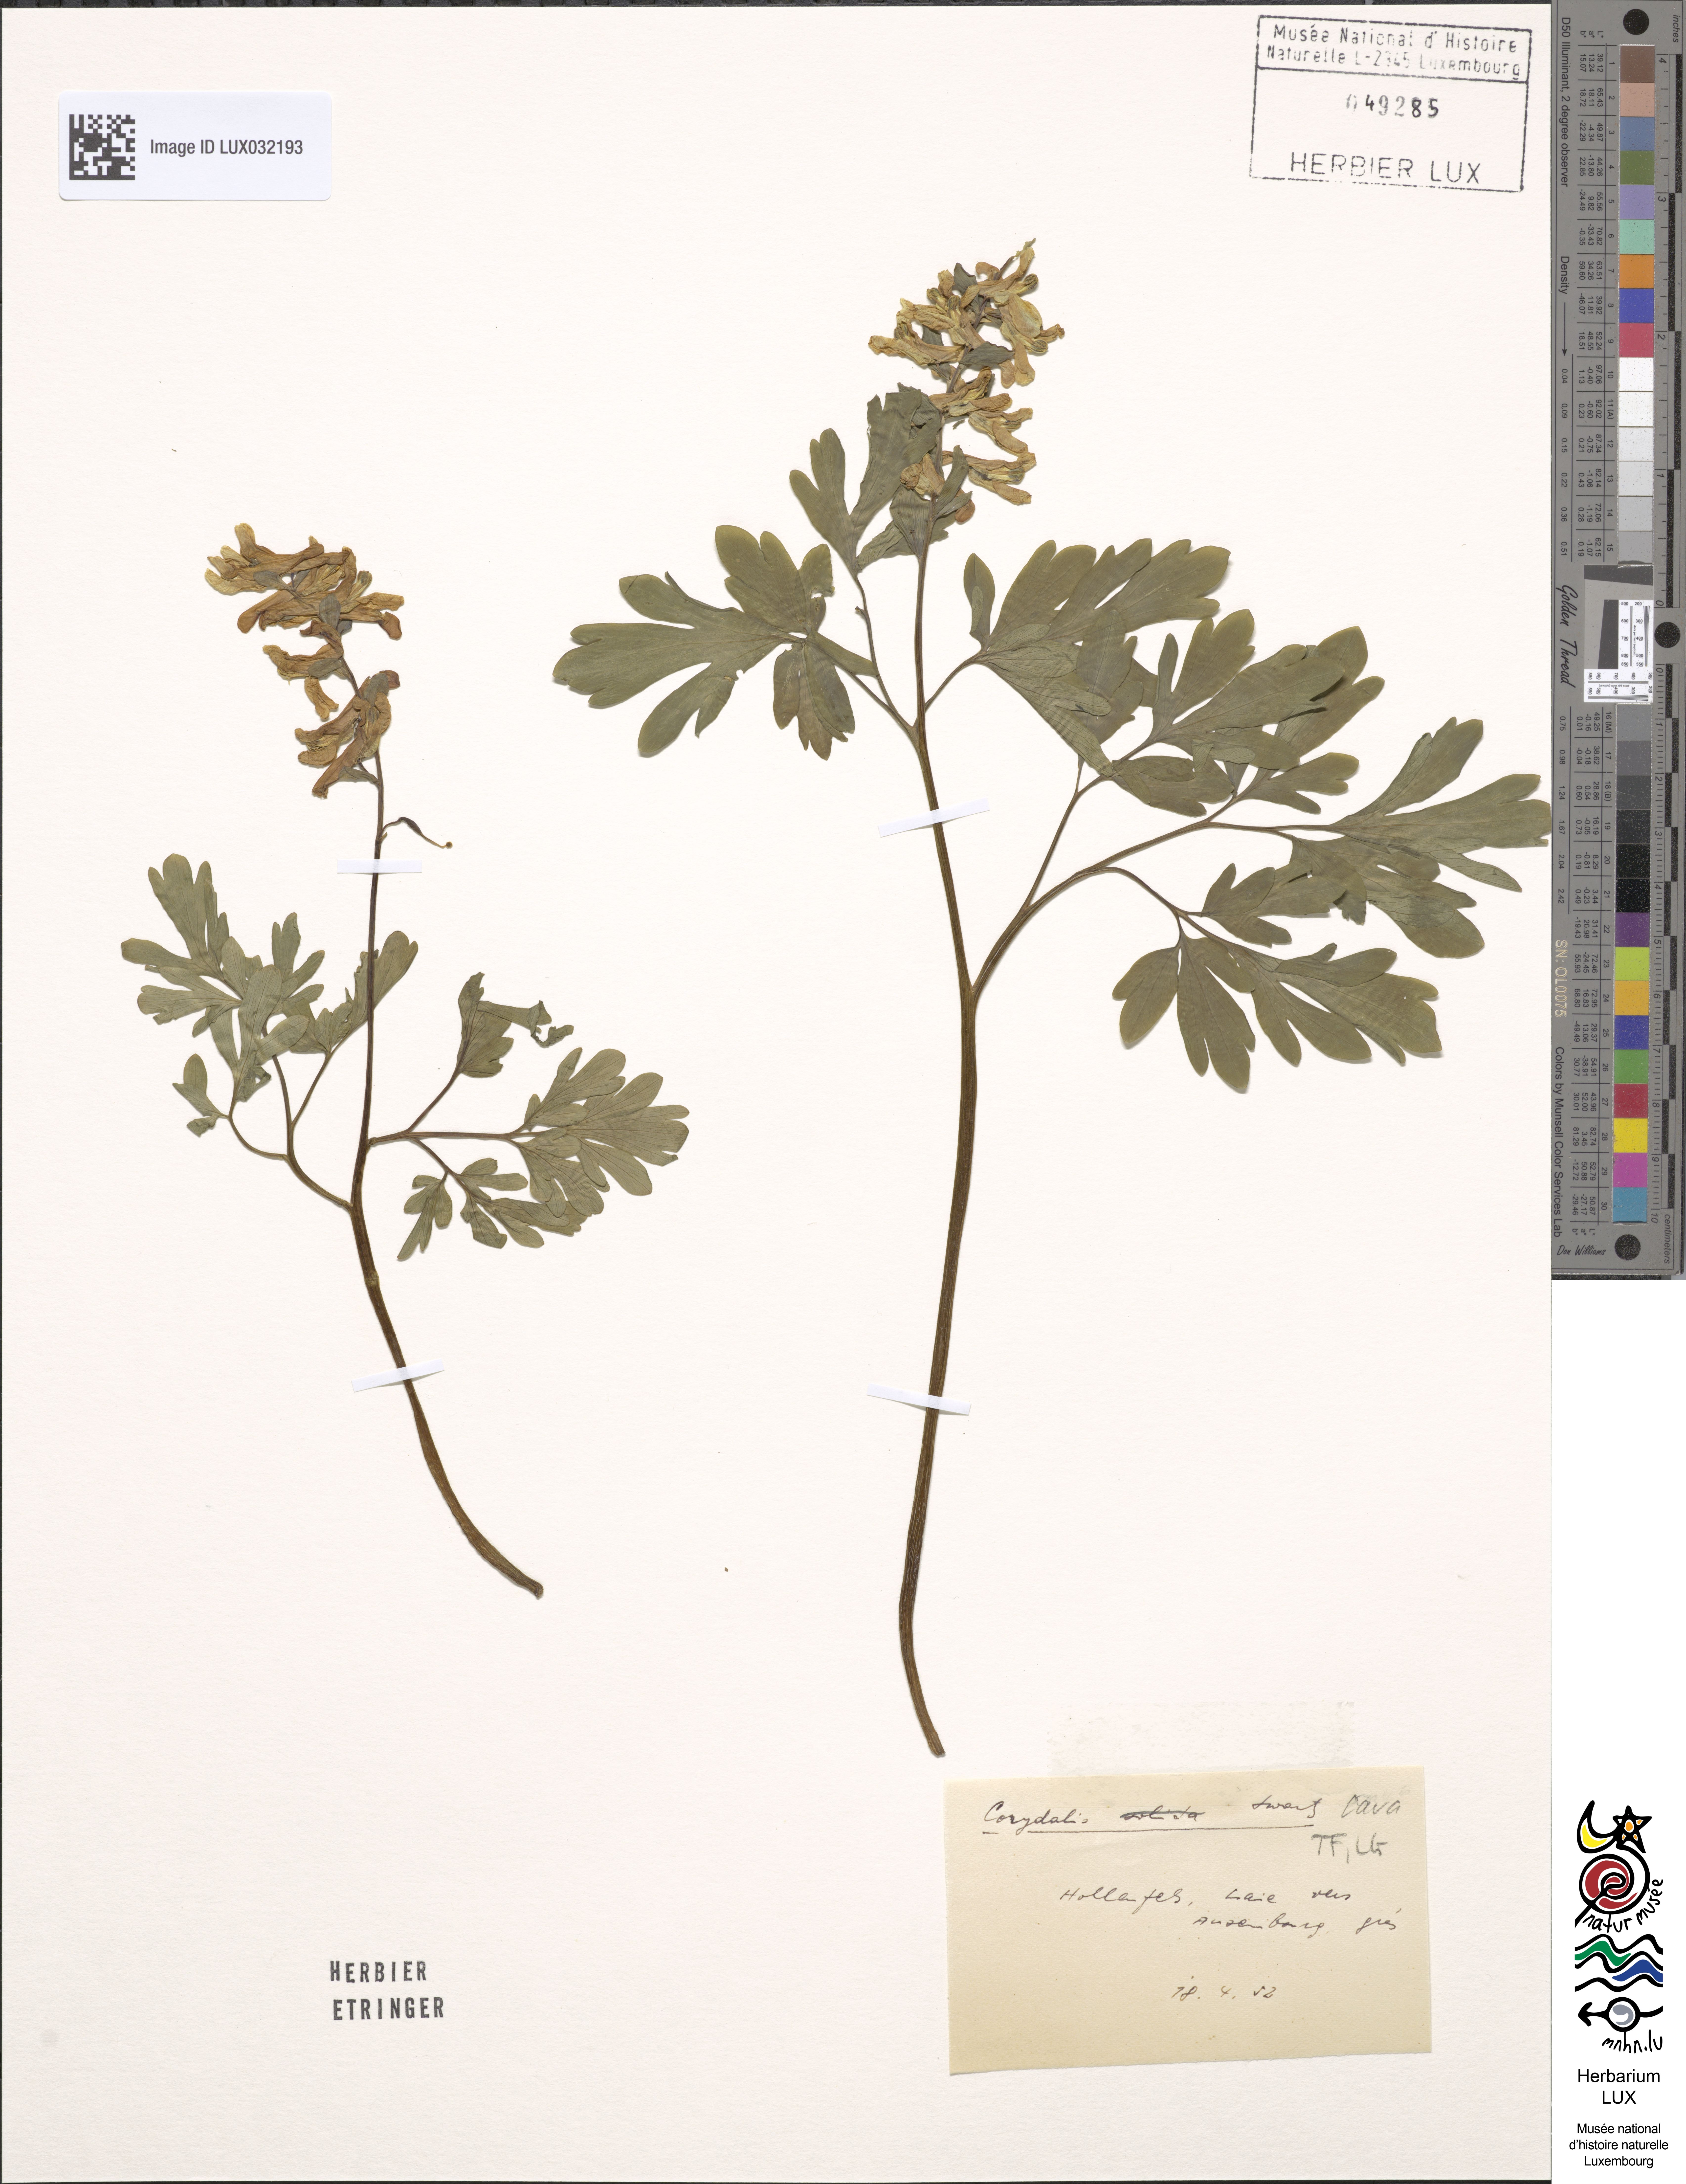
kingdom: Plantae
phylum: Tracheophyta
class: Magnoliopsida
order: Ranunculales
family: Papaveraceae
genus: Corydalis
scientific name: Corydalis cava
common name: Hollowroot
